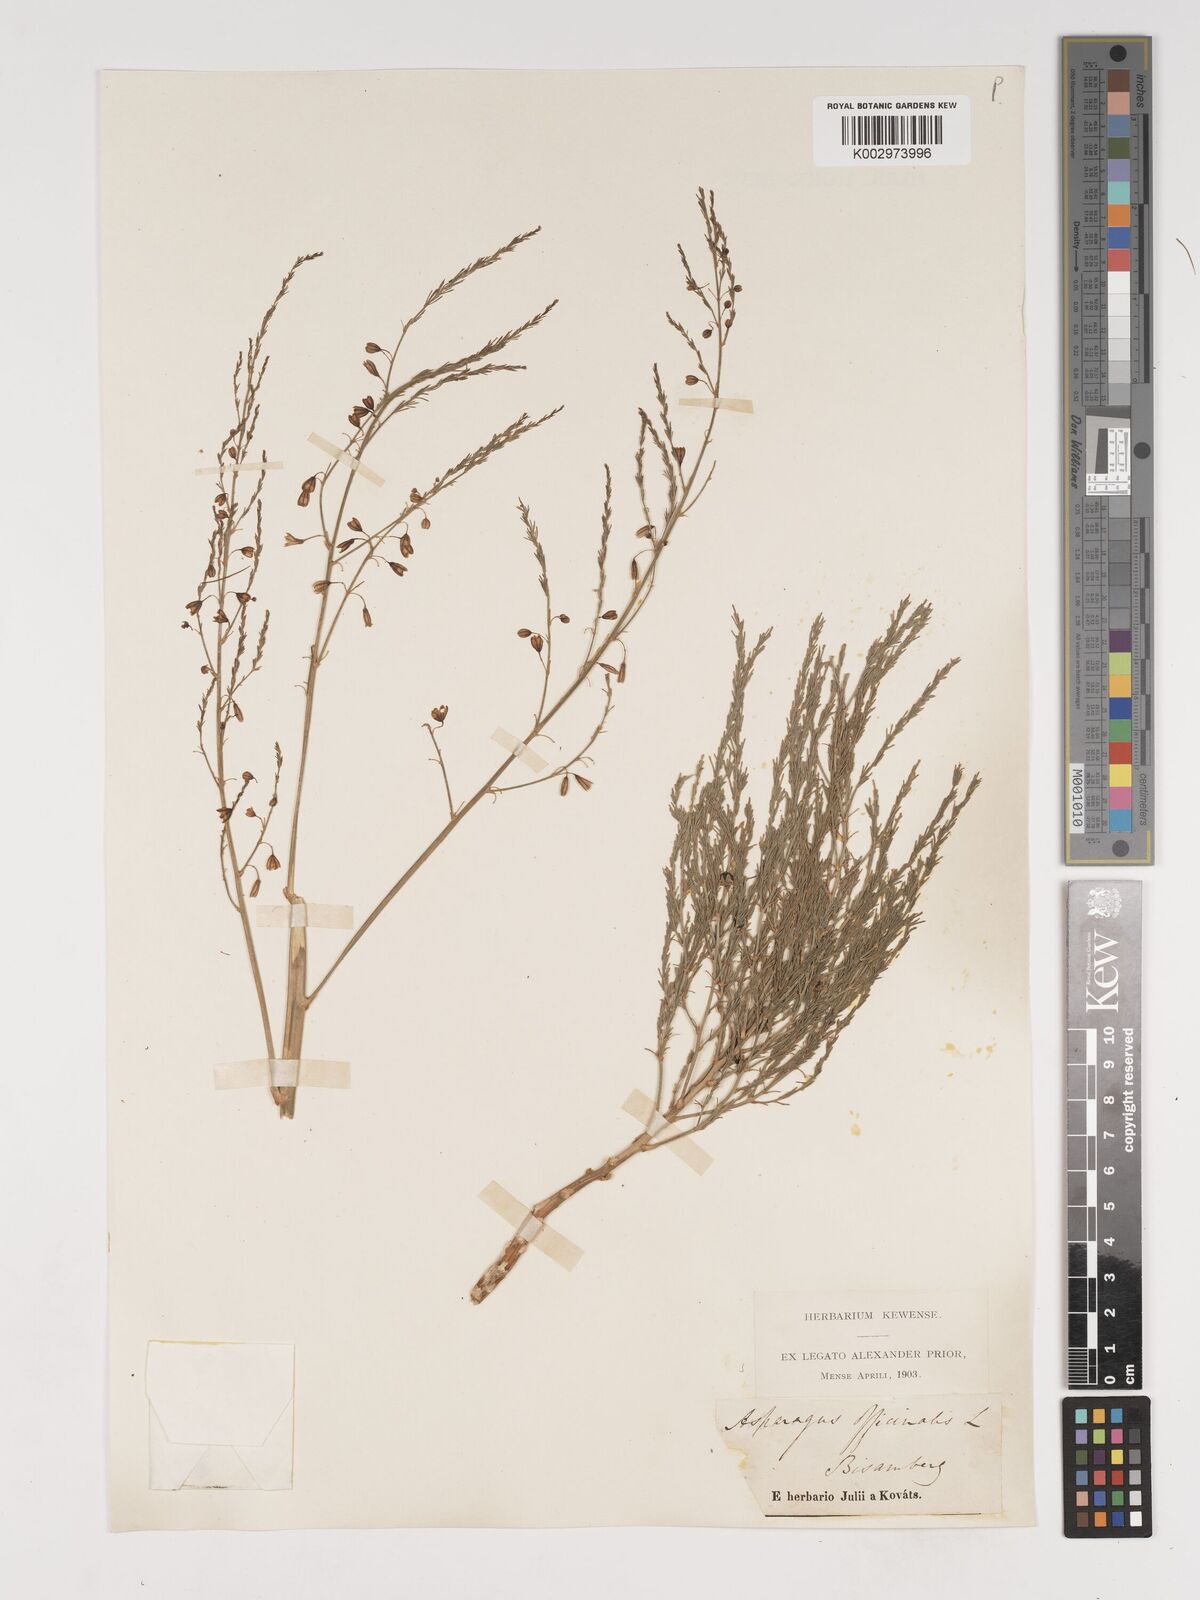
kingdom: Plantae
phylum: Tracheophyta
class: Liliopsida
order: Asparagales
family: Asparagaceae
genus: Asparagus
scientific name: Asparagus officinalis
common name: Garden asparagus
